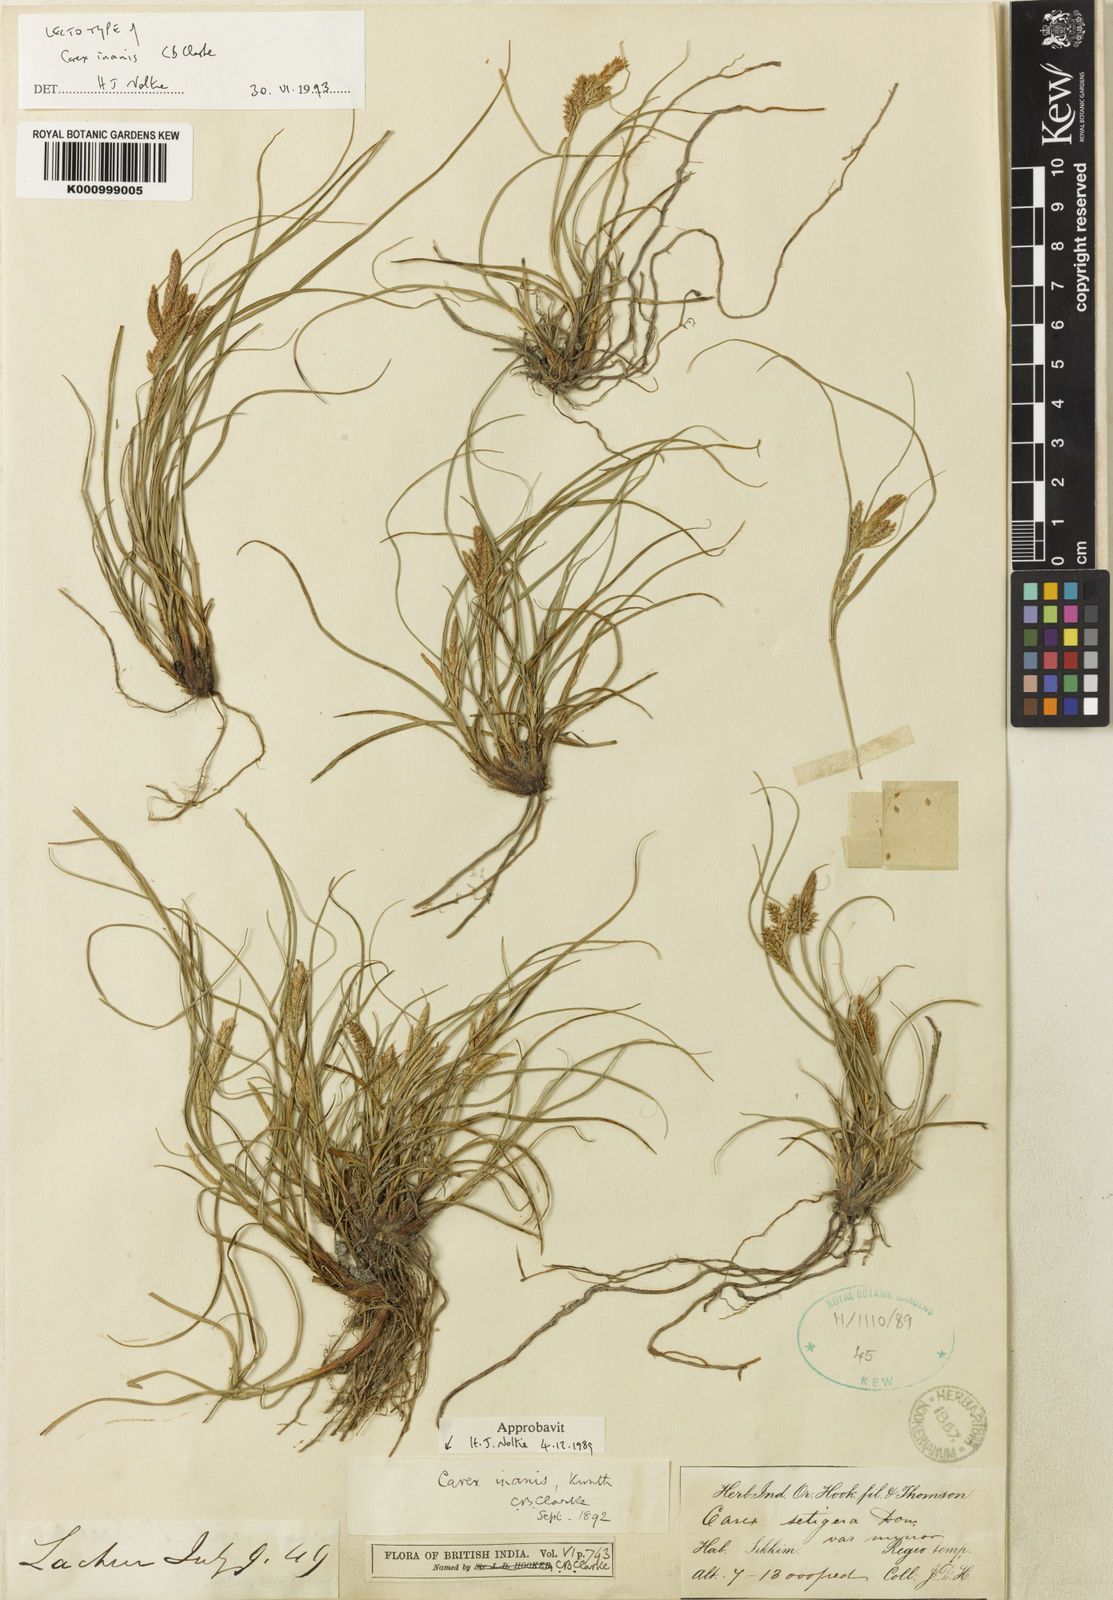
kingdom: Plantae
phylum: Tracheophyta
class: Liliopsida
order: Poales
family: Cyperaceae
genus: Carex
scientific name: Carex
